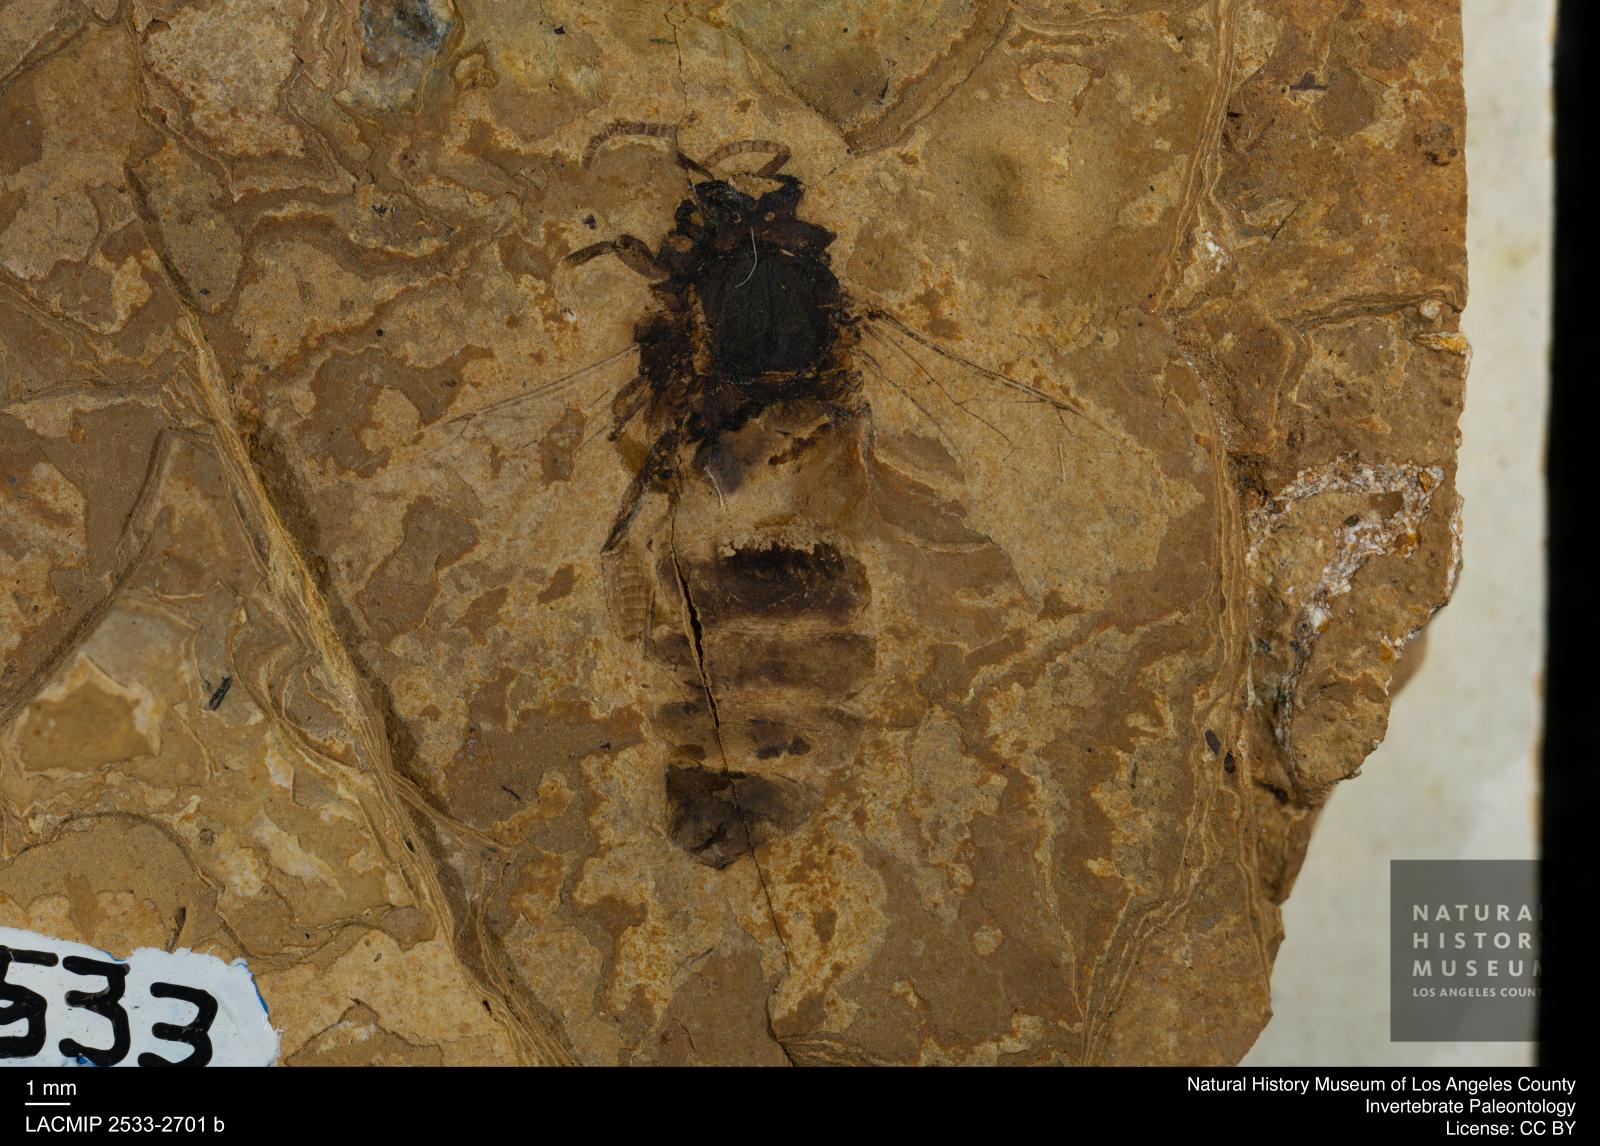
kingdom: Animalia
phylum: Arthropoda
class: Insecta
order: Hymenoptera
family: Apidae
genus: Apis
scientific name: Apis henshawi
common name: Henshaw's honey bee
